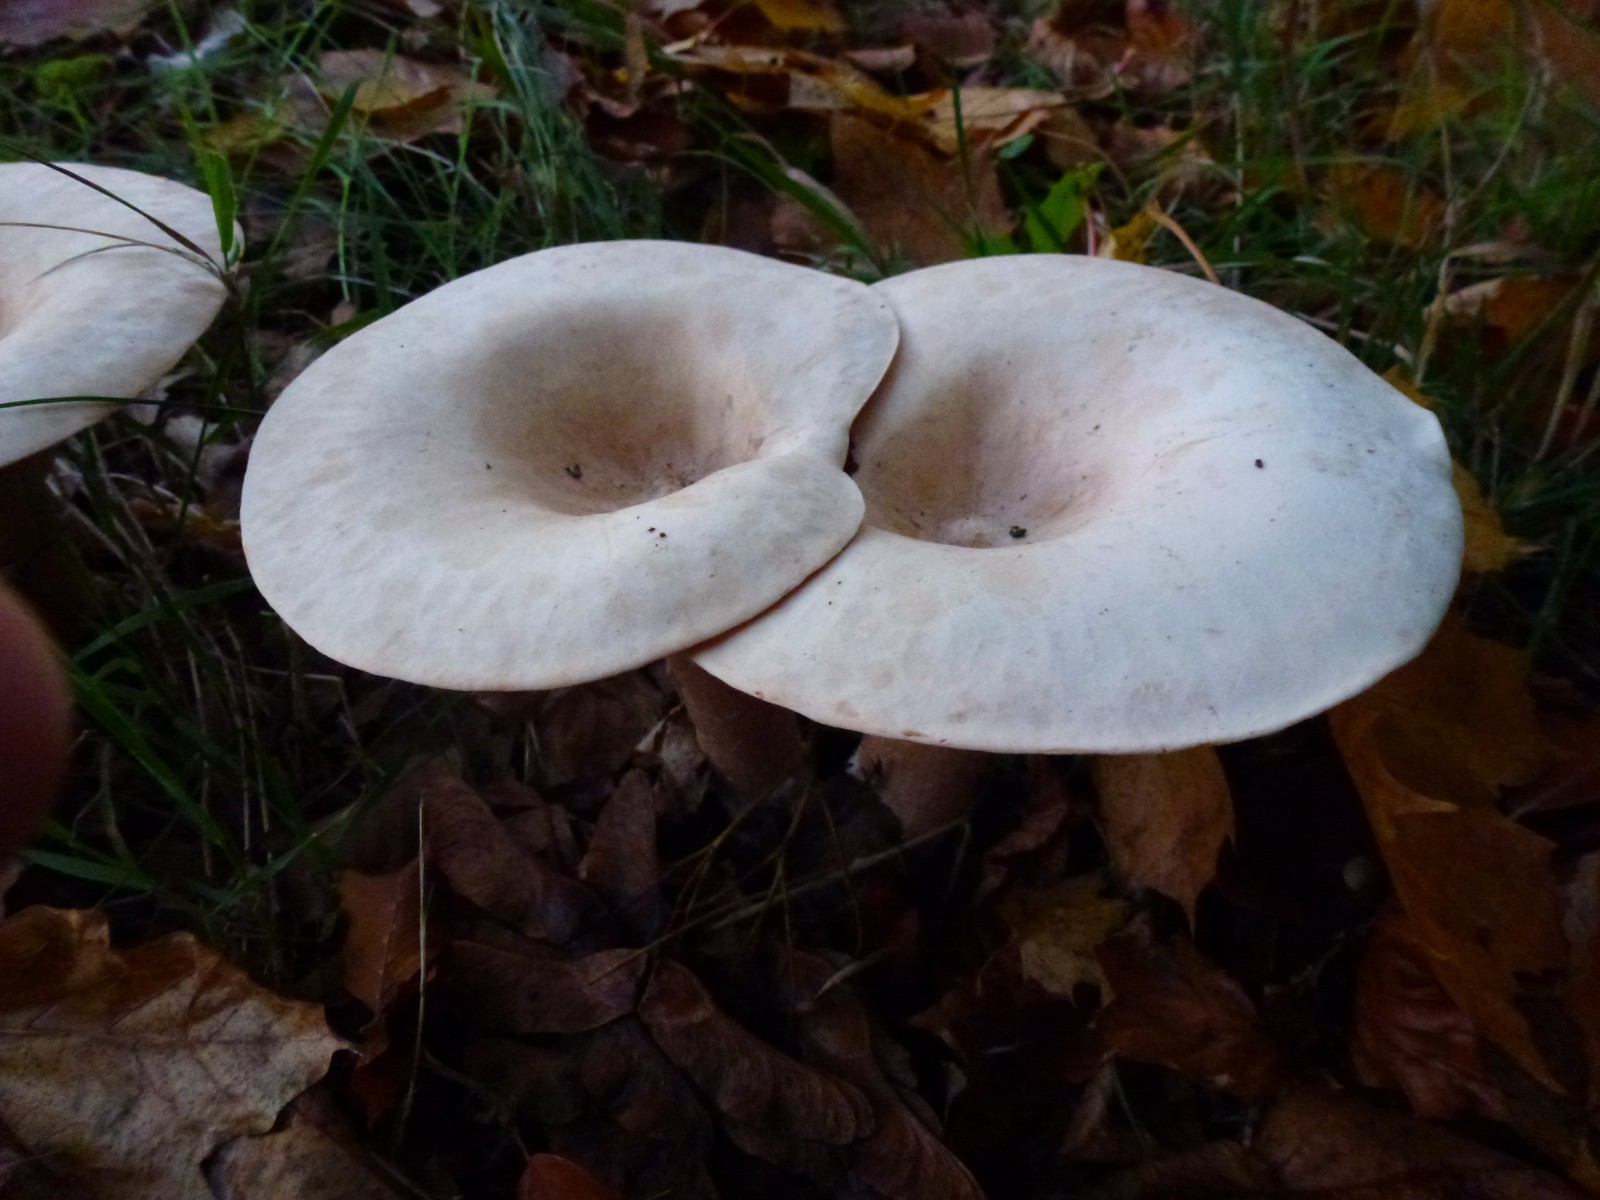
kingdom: Fungi
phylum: Basidiomycota
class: Agaricomycetes
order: Agaricales
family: Tricholomataceae
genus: Infundibulicybe
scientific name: Infundibulicybe geotropa
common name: stor tragthat
